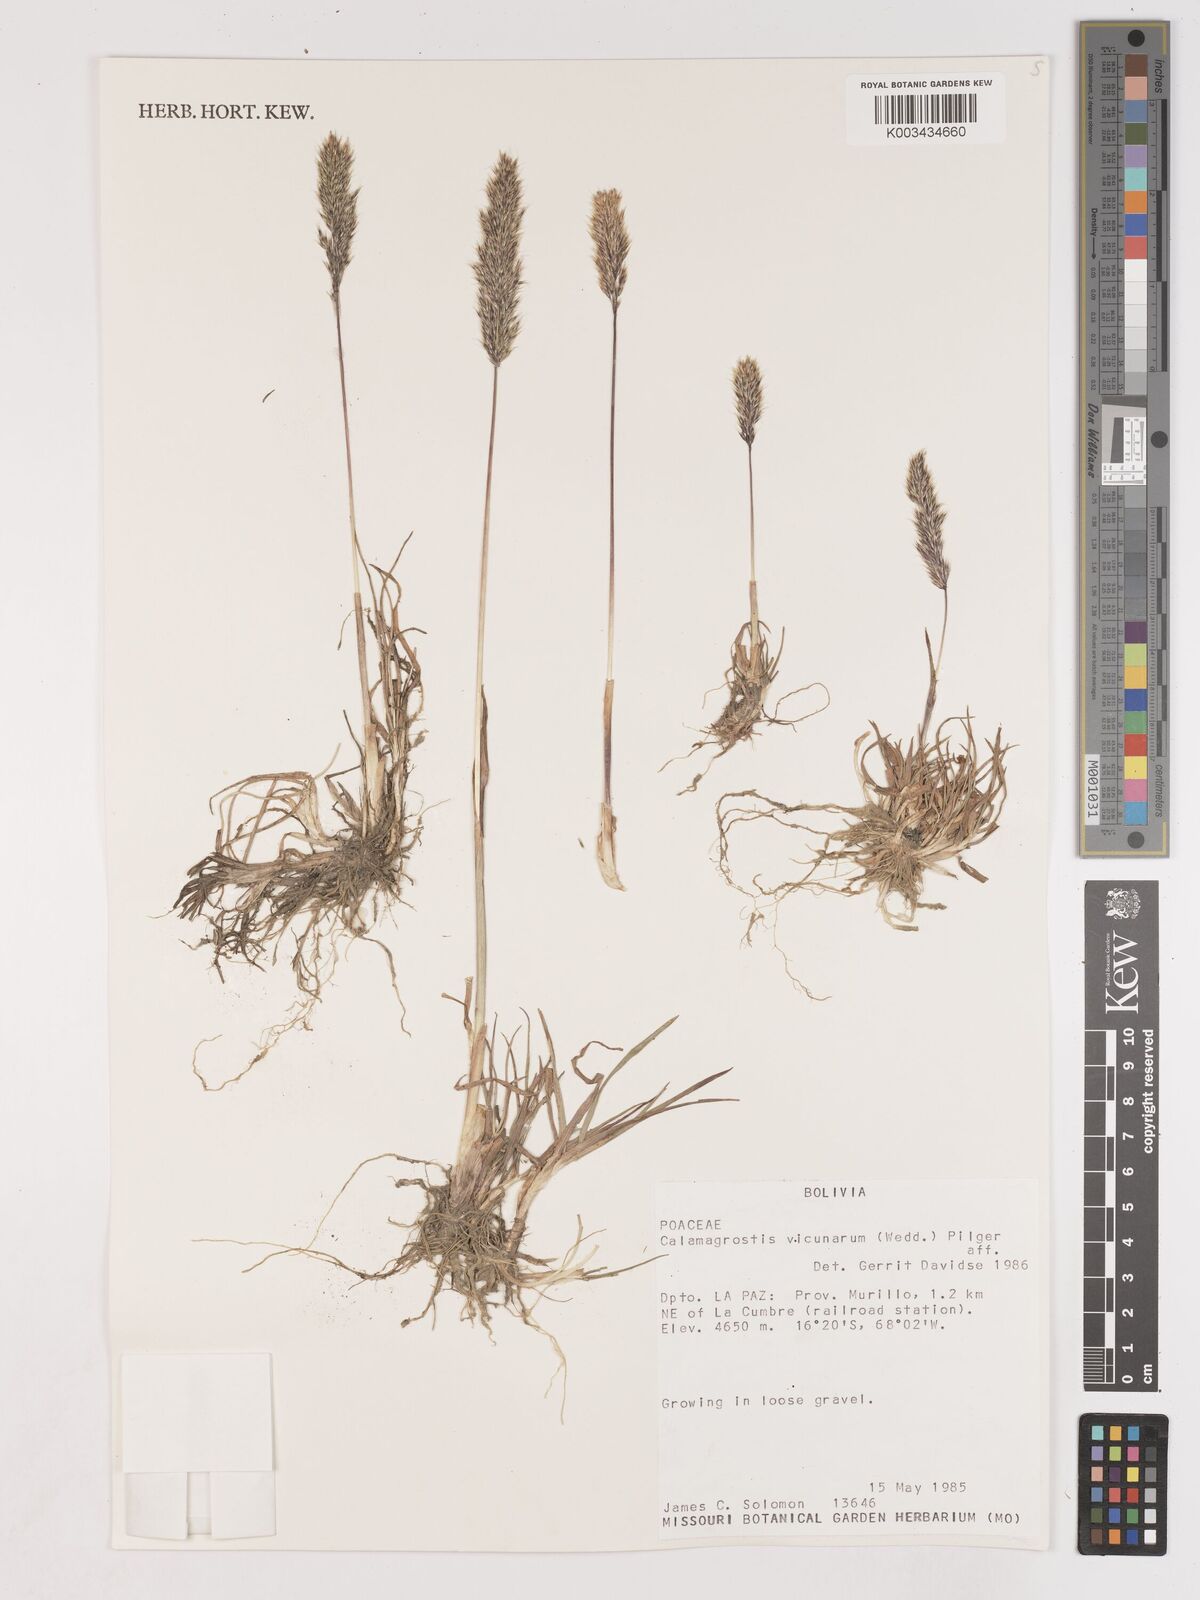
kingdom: Plantae
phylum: Tracheophyta
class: Liliopsida
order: Poales
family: Poaceae
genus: Cinnagrostis
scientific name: Cinnagrostis heterophylla
